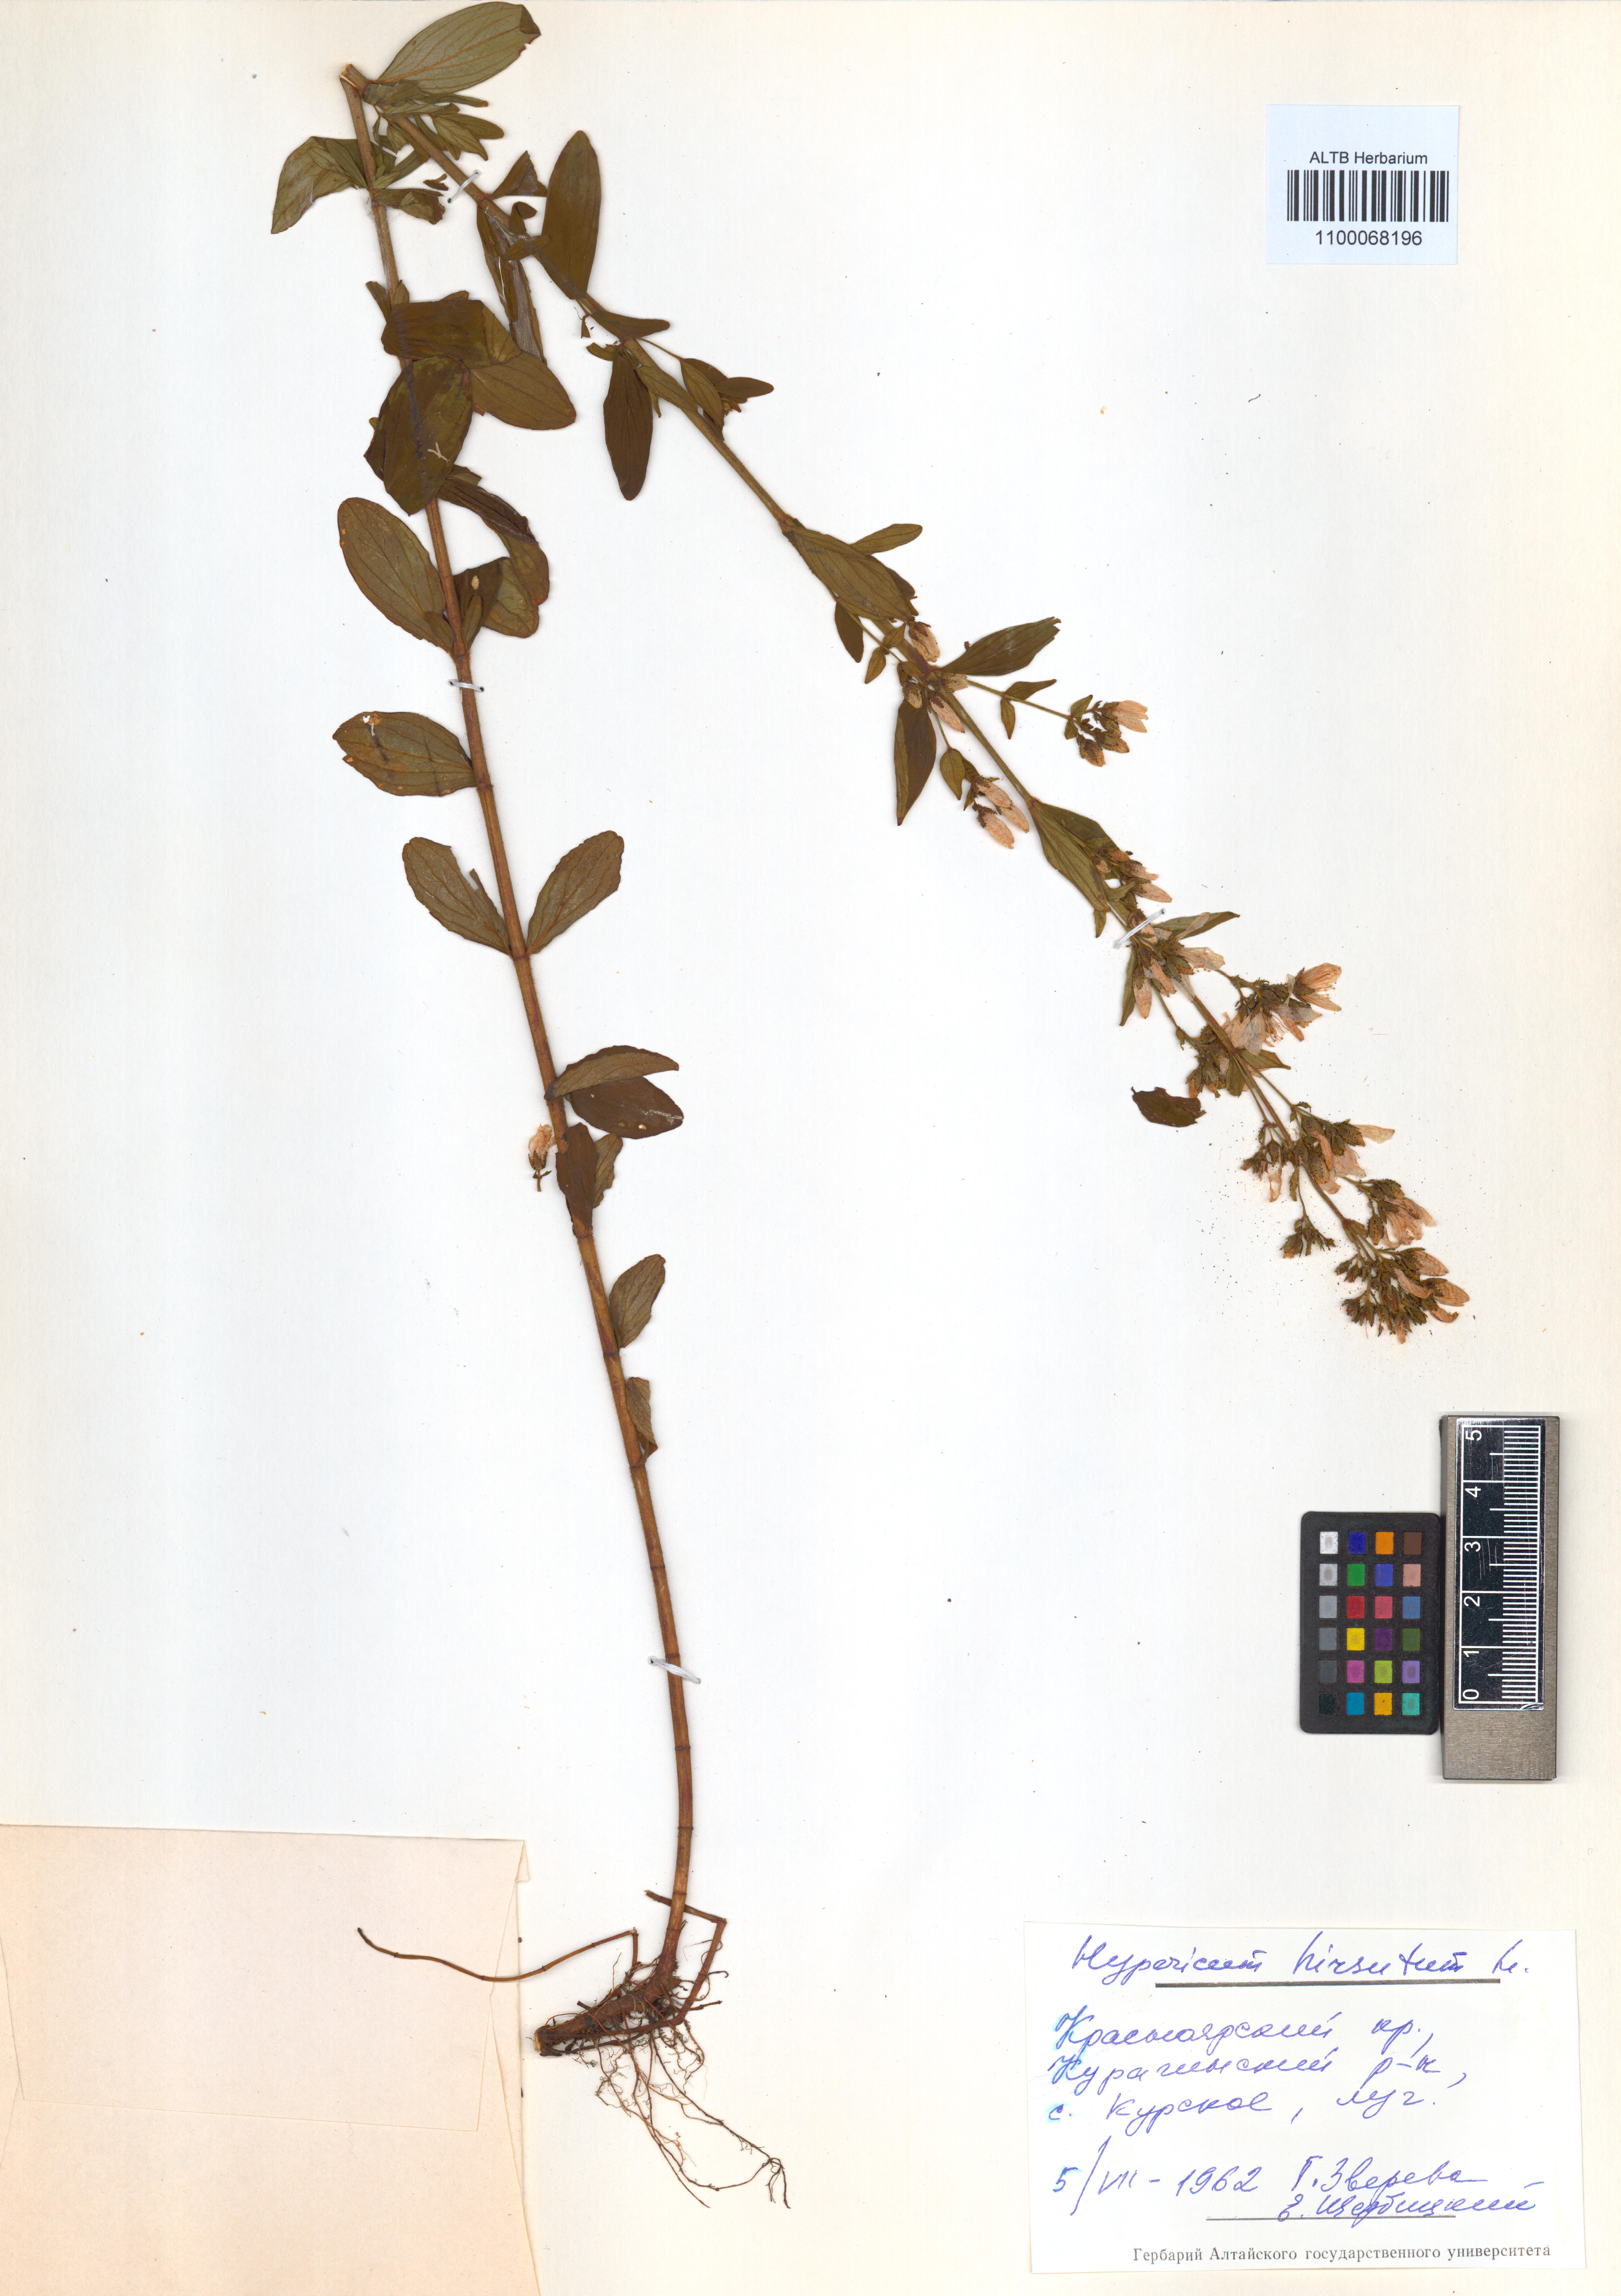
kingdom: Plantae
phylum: Tracheophyta
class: Magnoliopsida
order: Malpighiales
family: Hypericaceae
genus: Hypericum
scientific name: Hypericum hirsutum
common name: Hairy st. john's-wort
